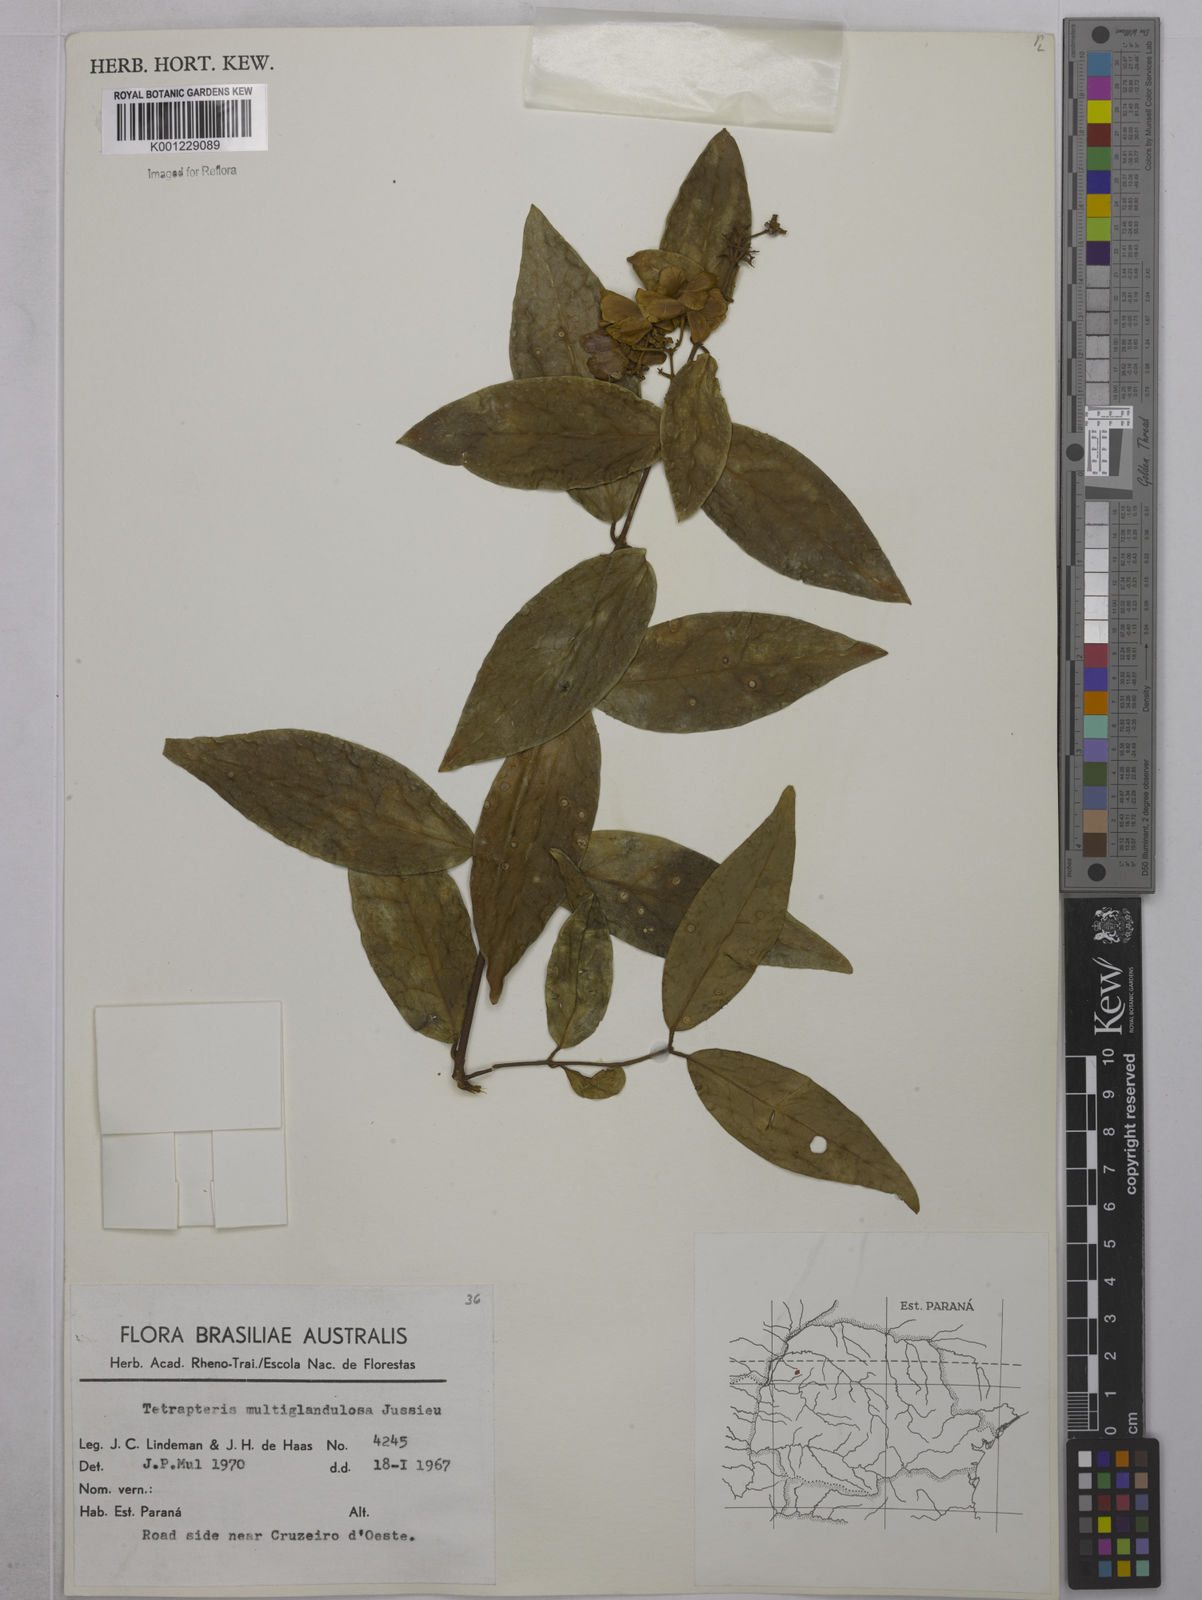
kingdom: Plantae
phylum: Tracheophyta
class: Magnoliopsida
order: Malpighiales
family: Malpighiaceae
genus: Niedenzuella
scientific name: Niedenzuella multiglandulosa
